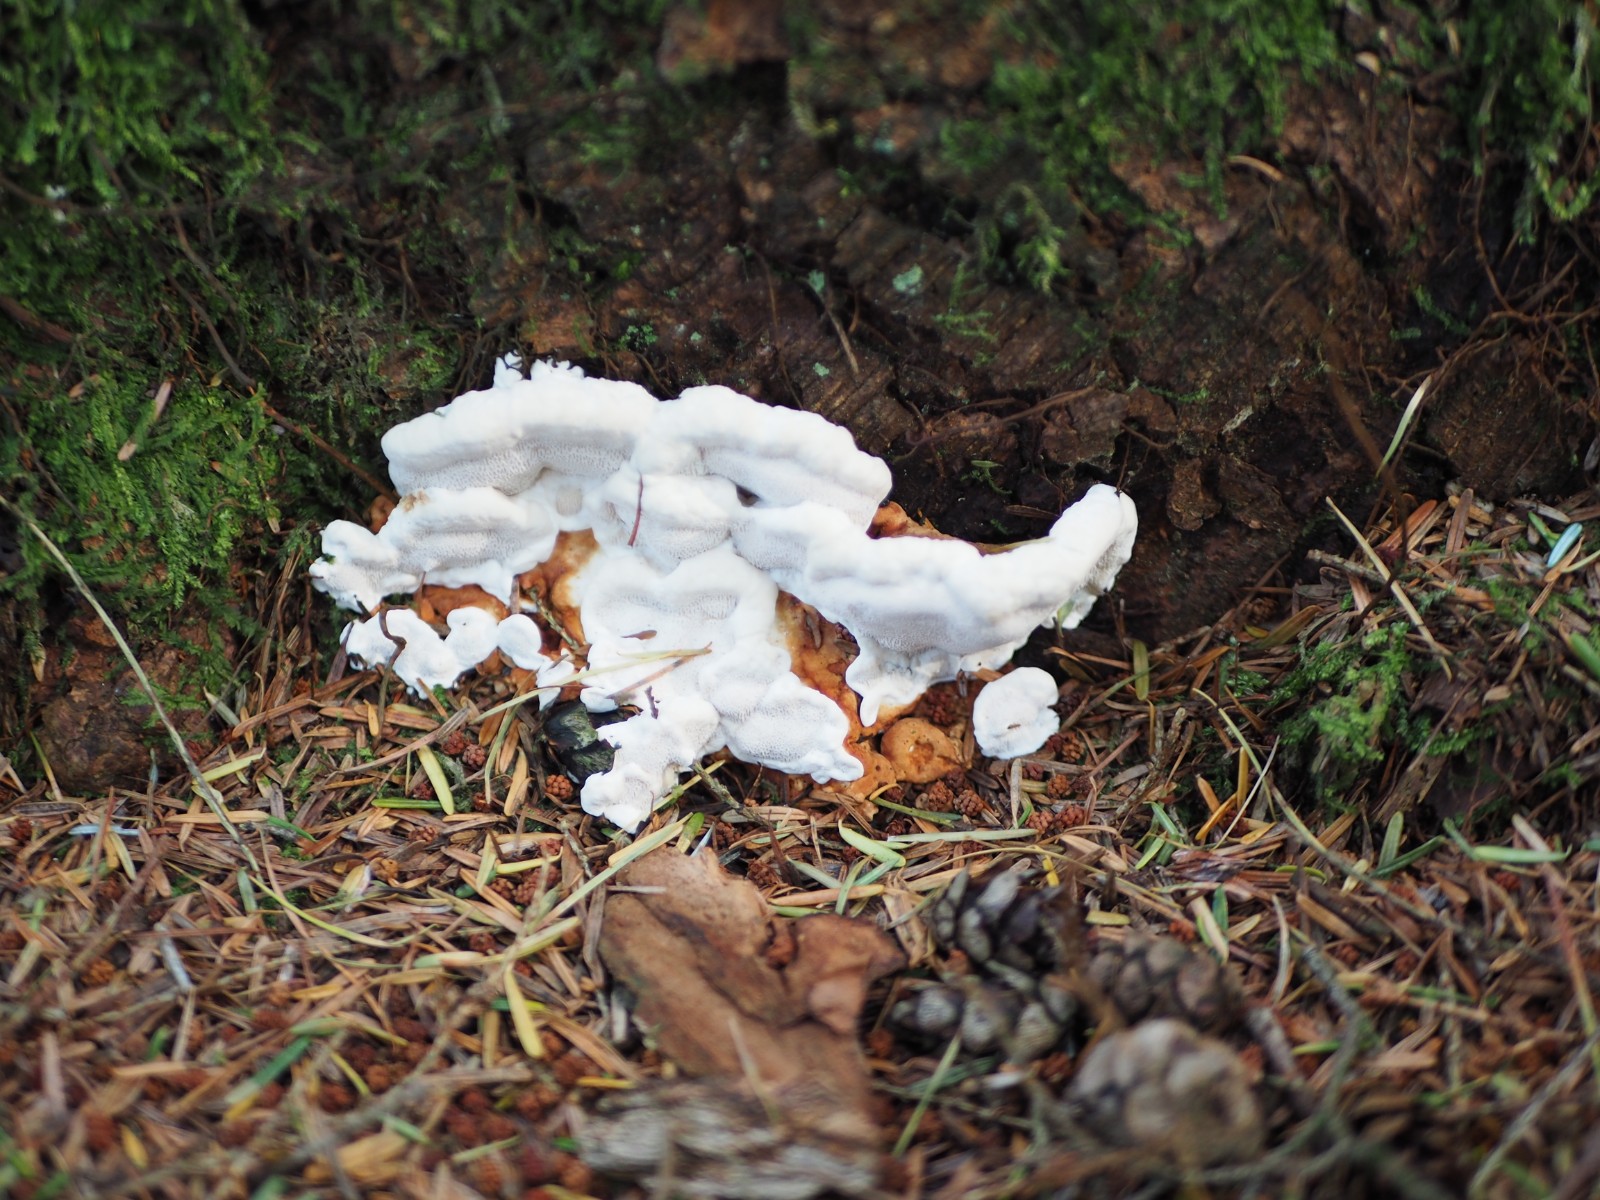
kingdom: Fungi
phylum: Basidiomycota
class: Agaricomycetes
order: Russulales
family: Bondarzewiaceae
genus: Heterobasidion
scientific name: Heterobasidion annosum
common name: almindelig rodfordærver
